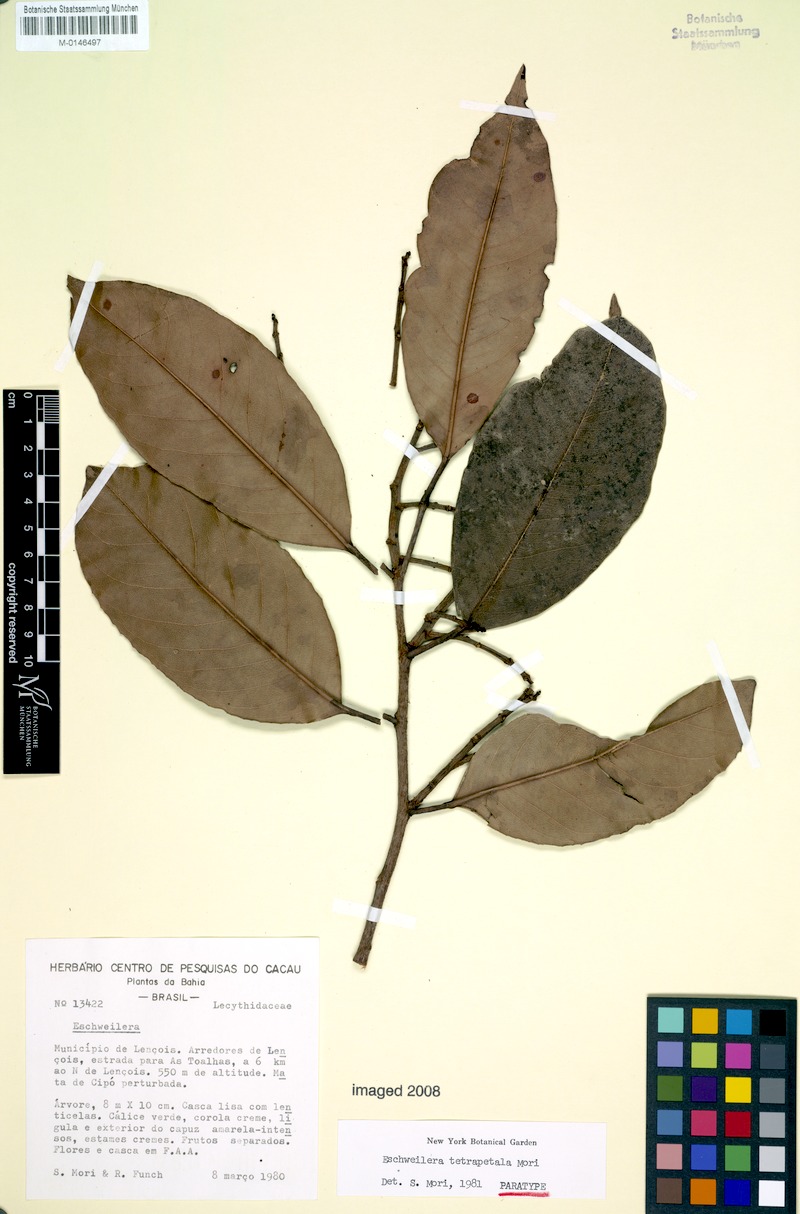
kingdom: Plantae
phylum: Tracheophyta
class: Magnoliopsida
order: Ericales
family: Lecythidaceae
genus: Eschweilera
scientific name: Eschweilera tetrapetala
